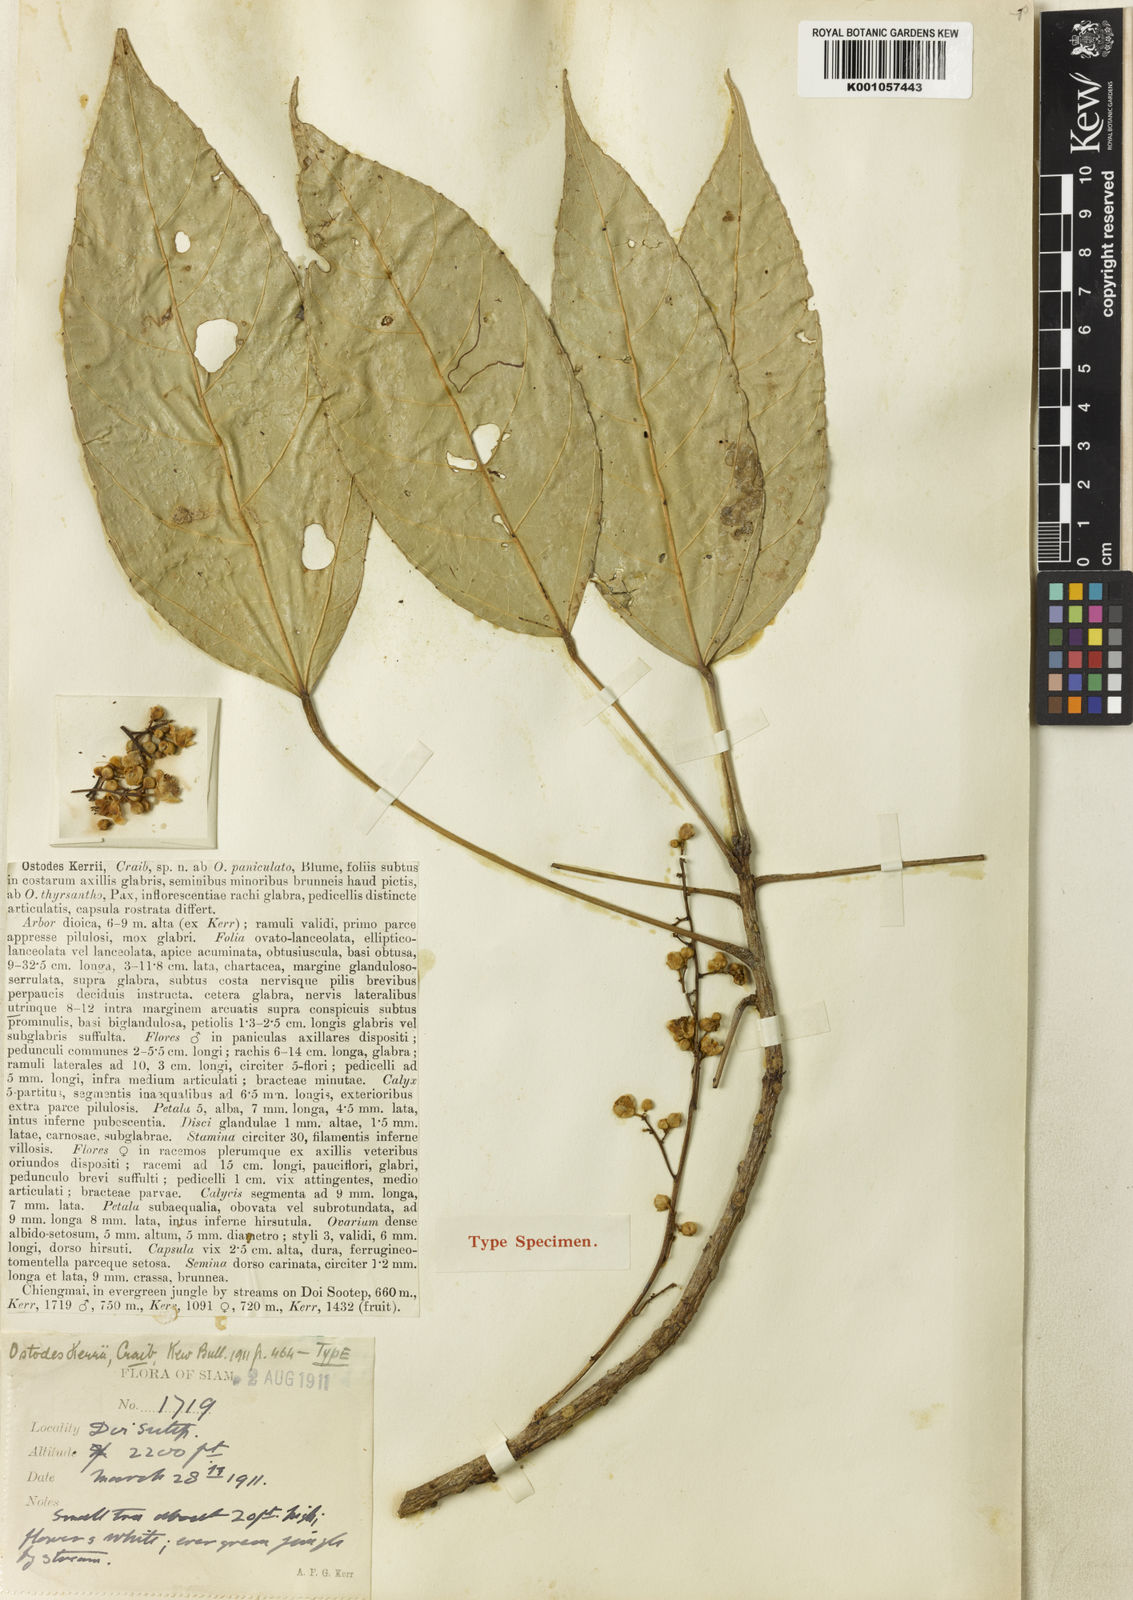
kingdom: Plantae
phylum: Tracheophyta
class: Magnoliopsida
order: Malpighiales
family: Euphorbiaceae
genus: Ostodes
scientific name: Ostodes paniculata
